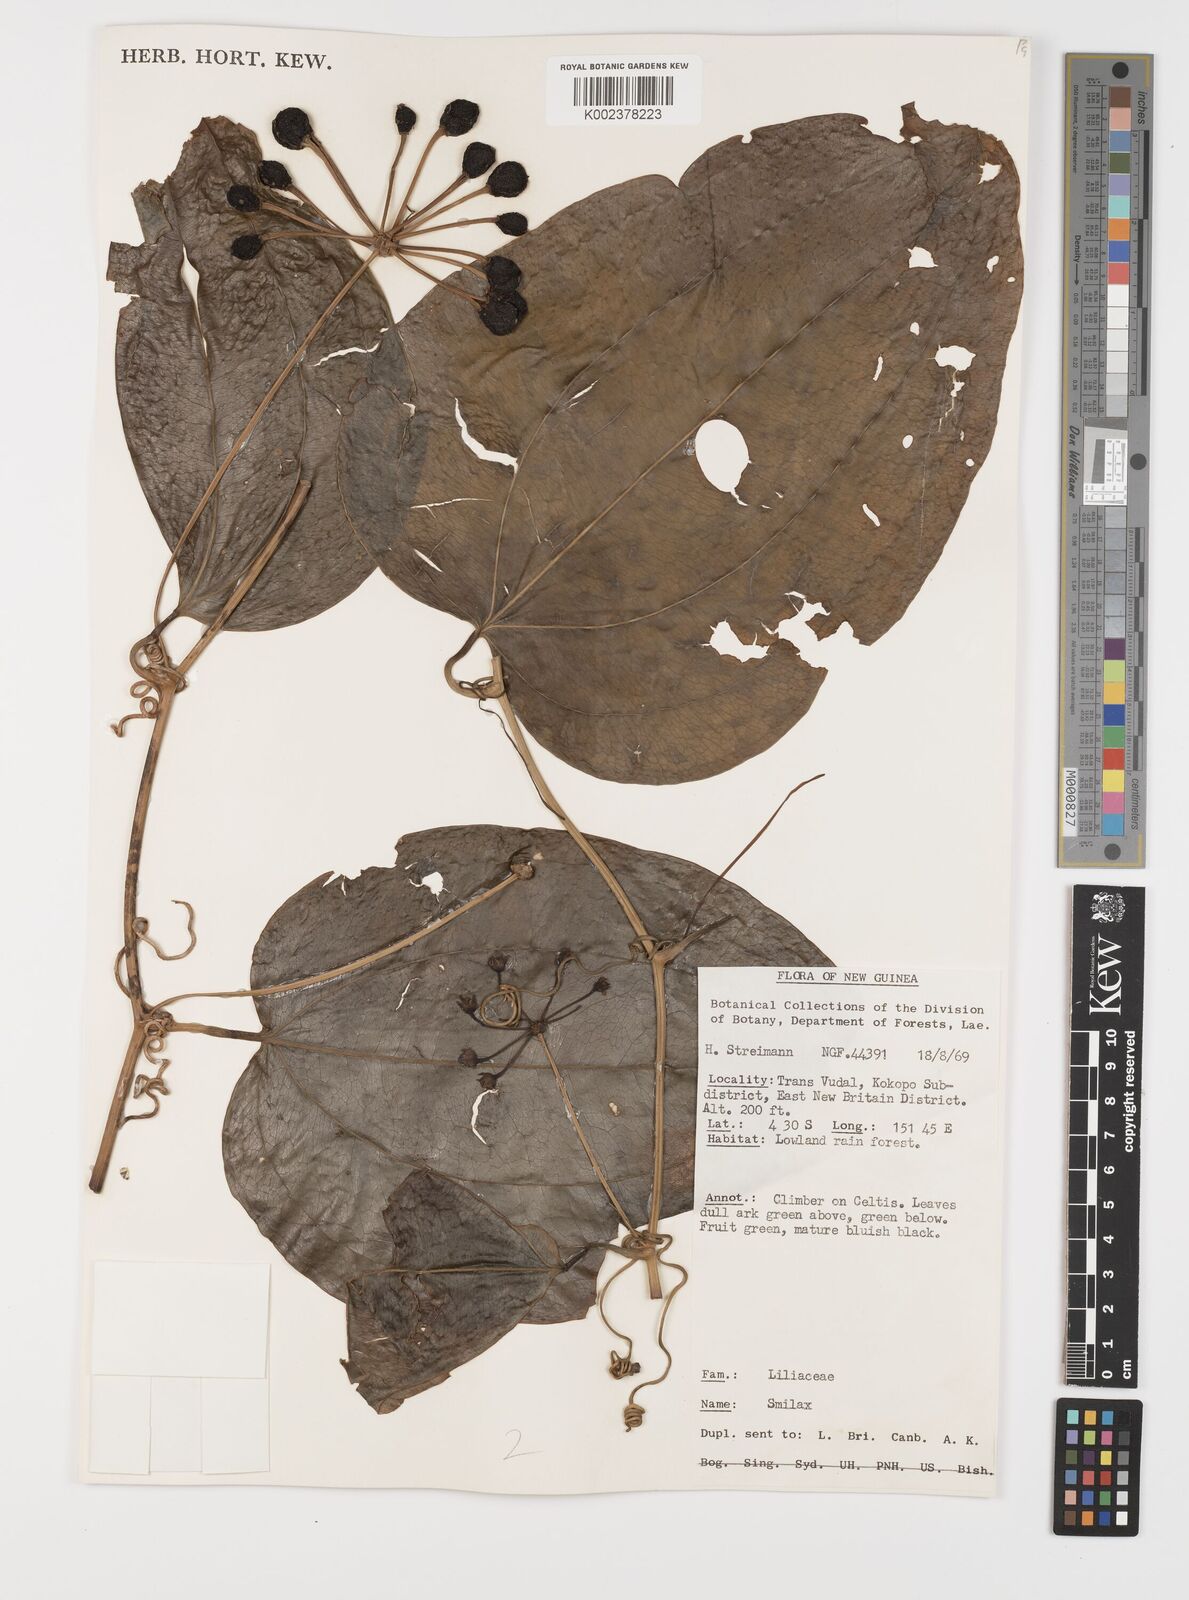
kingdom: Plantae
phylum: Tracheophyta
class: Liliopsida
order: Liliales
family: Smilacaceae
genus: Smilax
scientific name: Smilax
